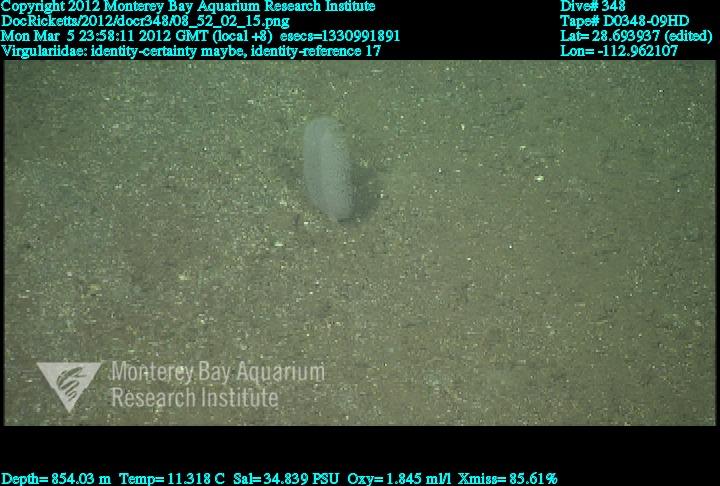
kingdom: Animalia
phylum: Cnidaria
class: Anthozoa
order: Scleralcyonacea
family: Virgulariidae
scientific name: Virgulariidae
